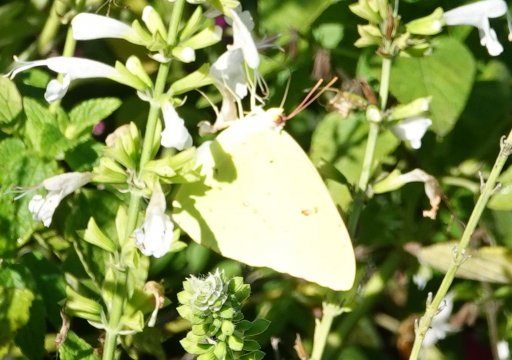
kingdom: Animalia
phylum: Arthropoda
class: Insecta
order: Lepidoptera
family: Pieridae
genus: Phoebis
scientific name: Phoebis sennae
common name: Cloudless Sulphur
